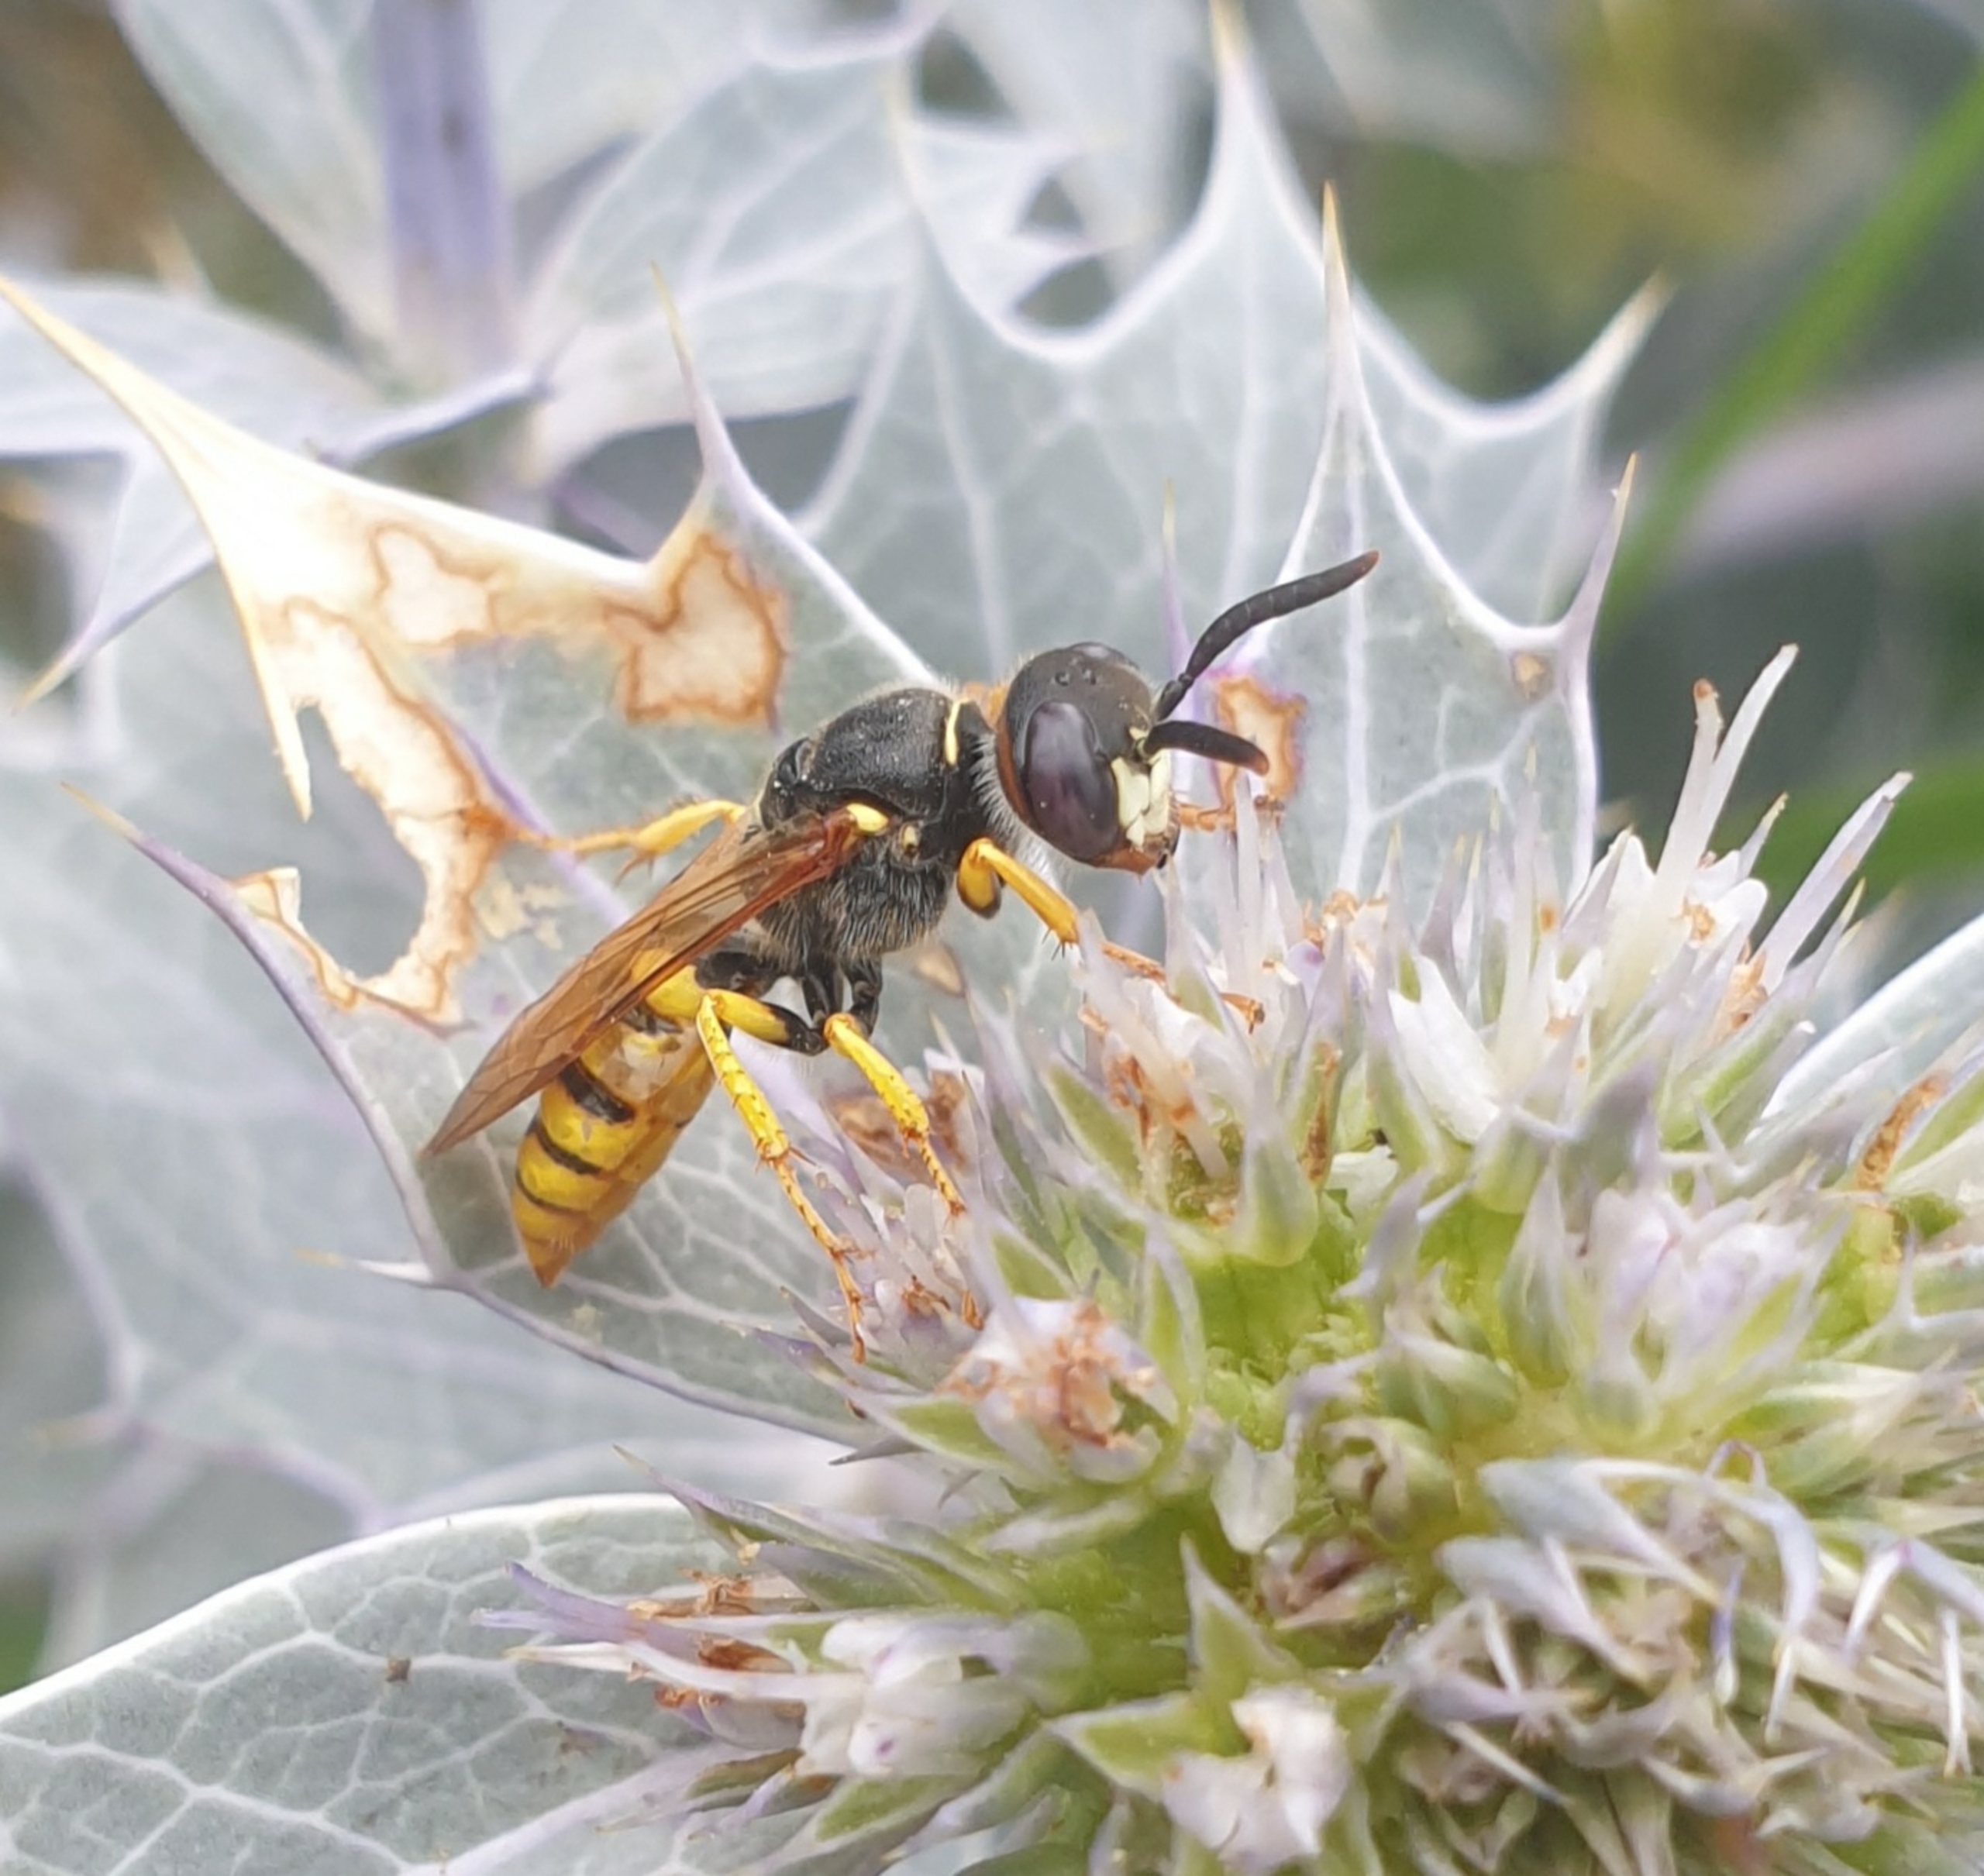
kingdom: Animalia
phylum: Arthropoda
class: Insecta
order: Hymenoptera
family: Crabronidae
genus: Philanthus
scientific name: Philanthus triangulum
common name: Biulv
